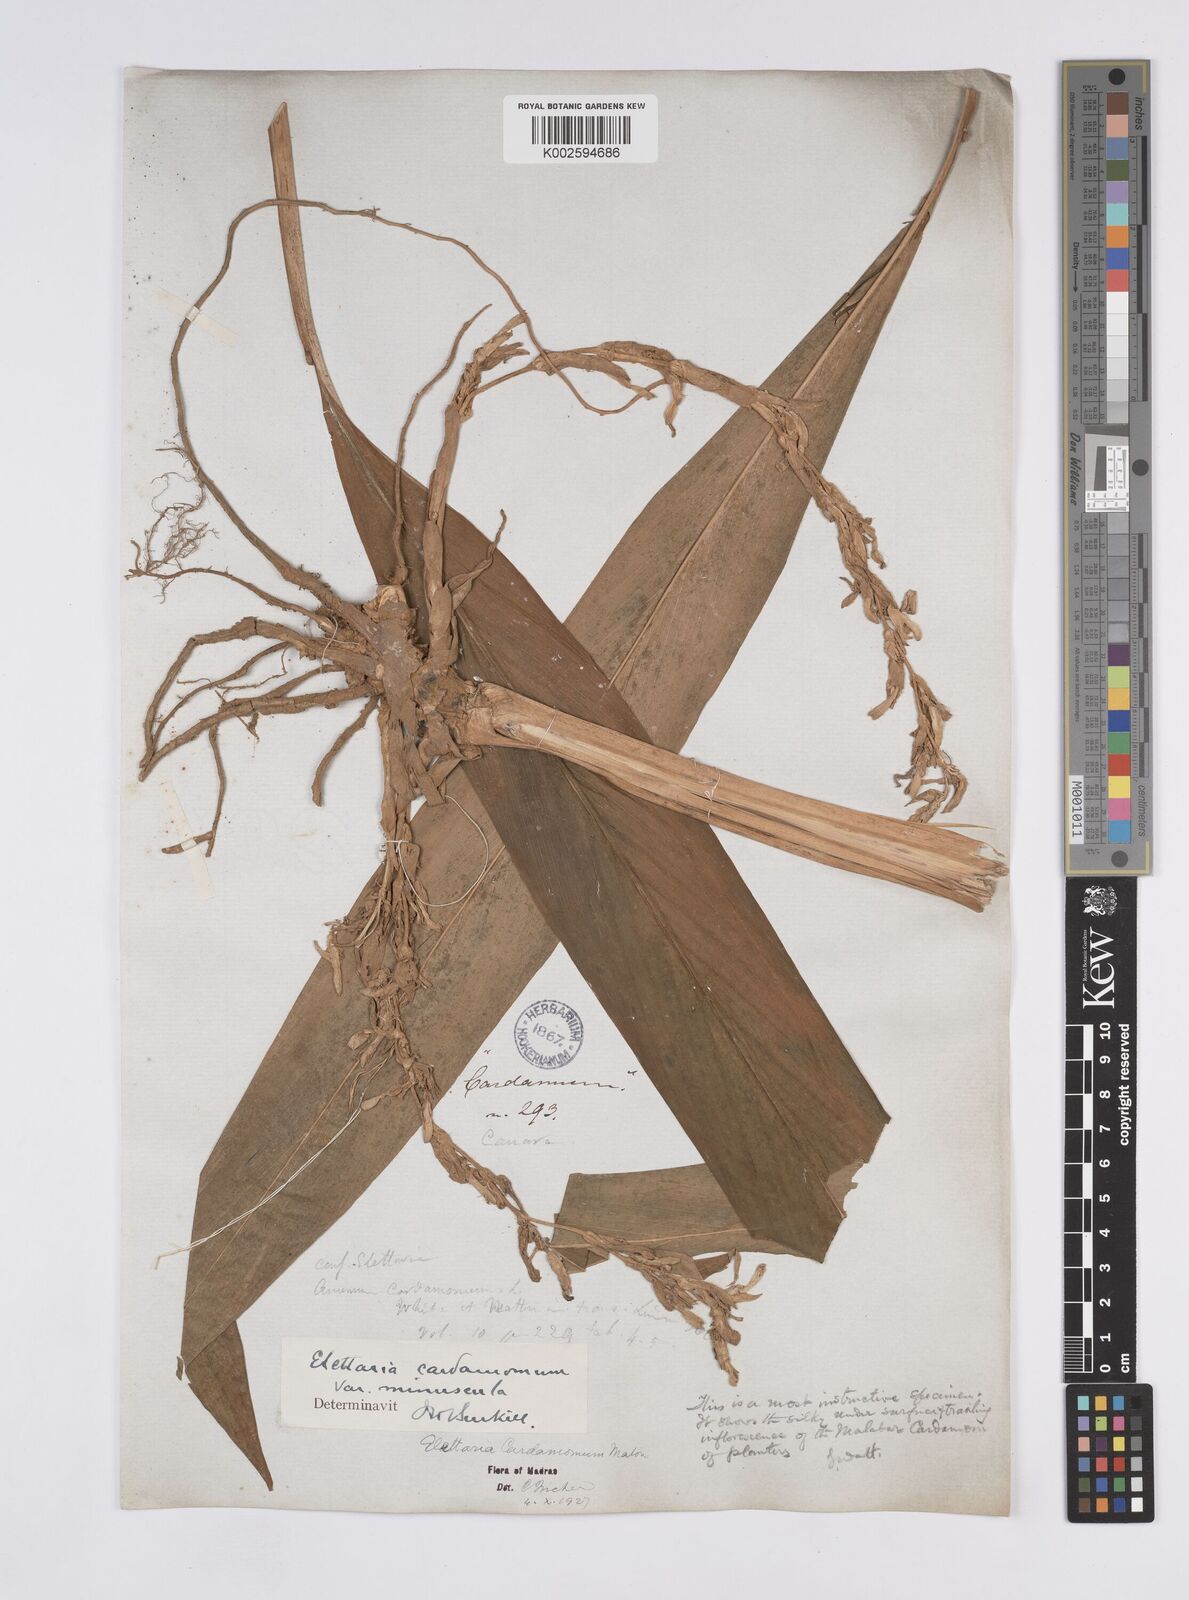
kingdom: Plantae
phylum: Tracheophyta
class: Liliopsida
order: Zingiberales
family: Zingiberaceae
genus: Elettaria
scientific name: Elettaria cardamomum
